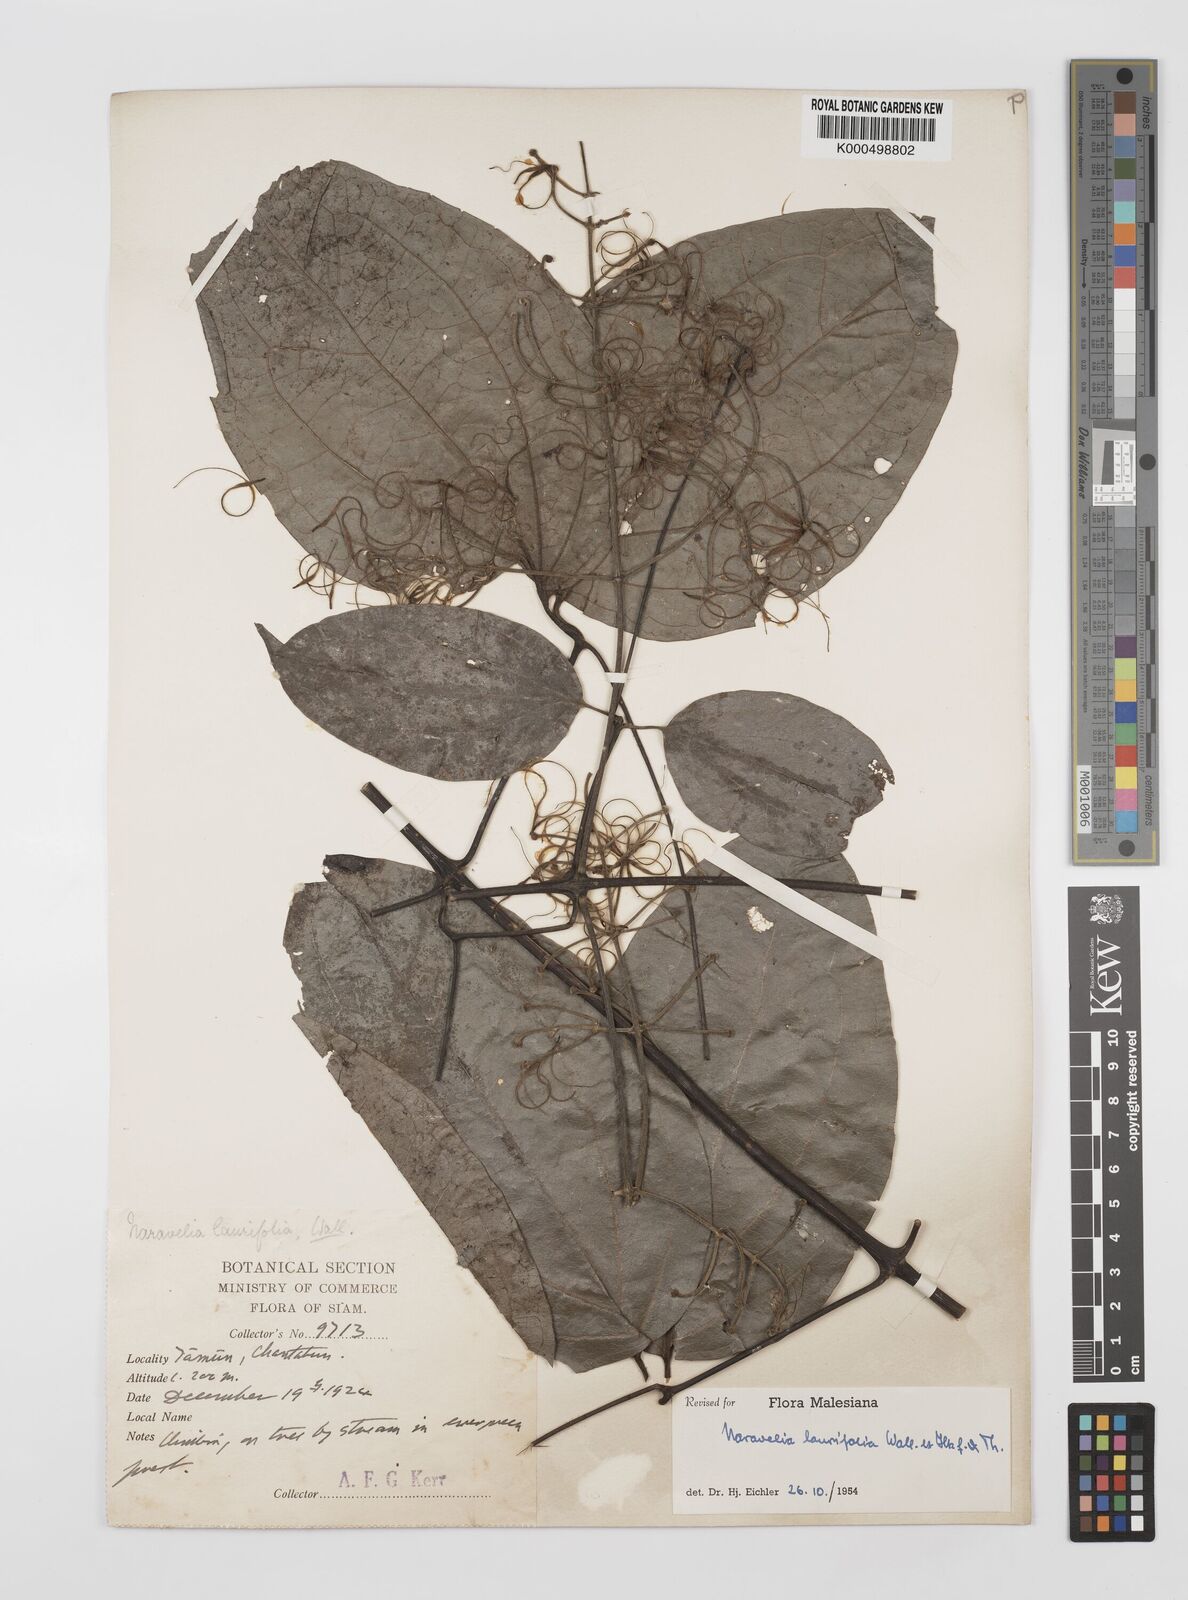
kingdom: Plantae
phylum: Tracheophyta
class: Magnoliopsida
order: Ranunculales
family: Ranunculaceae
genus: Clematis
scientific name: Clematis horripilata
